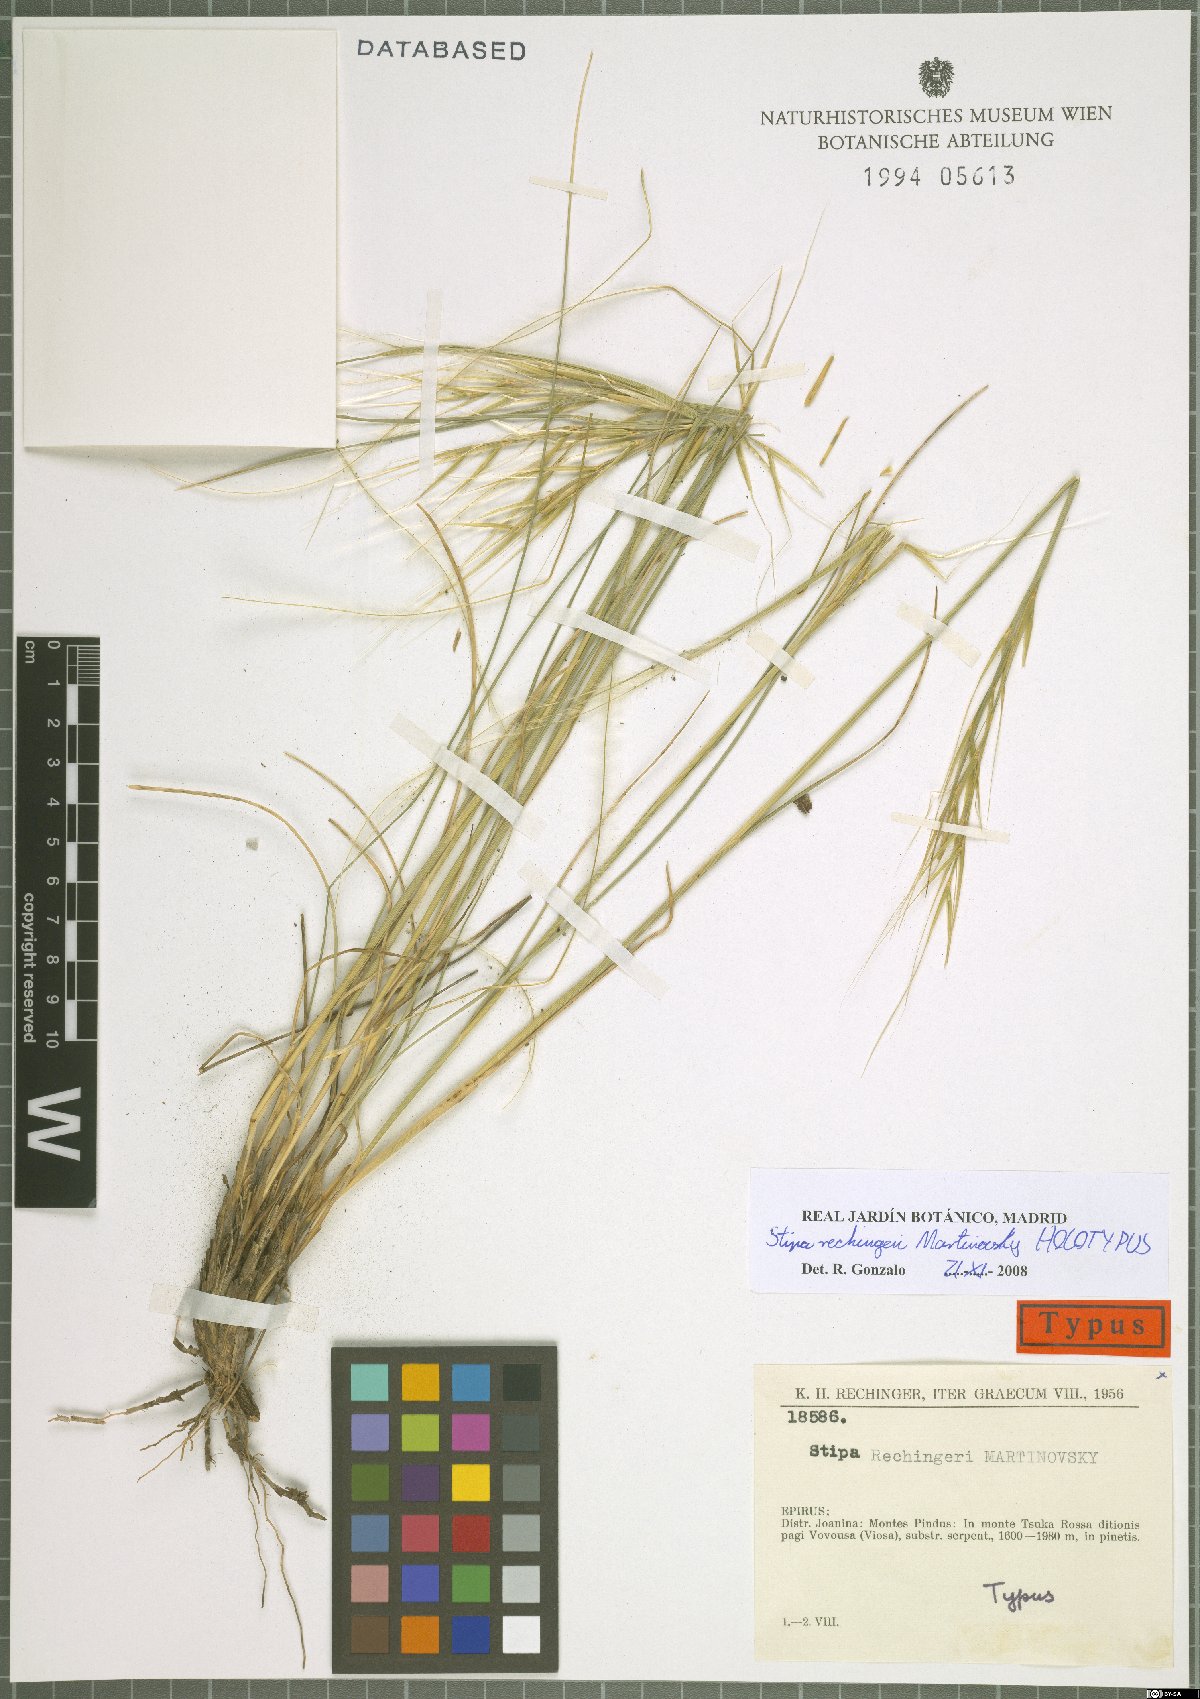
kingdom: Plantae
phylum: Tracheophyta
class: Liliopsida
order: Poales
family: Poaceae
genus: Stipa
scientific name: Stipa rechingeri
